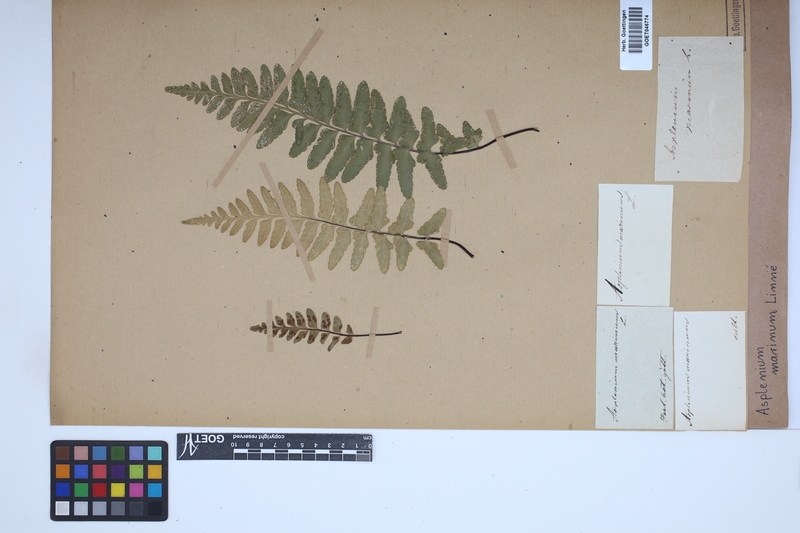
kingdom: Plantae
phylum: Tracheophyta
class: Polypodiopsida
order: Polypodiales
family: Aspleniaceae
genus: Asplenium
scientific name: Asplenium marinum
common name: Sea spleenwort
